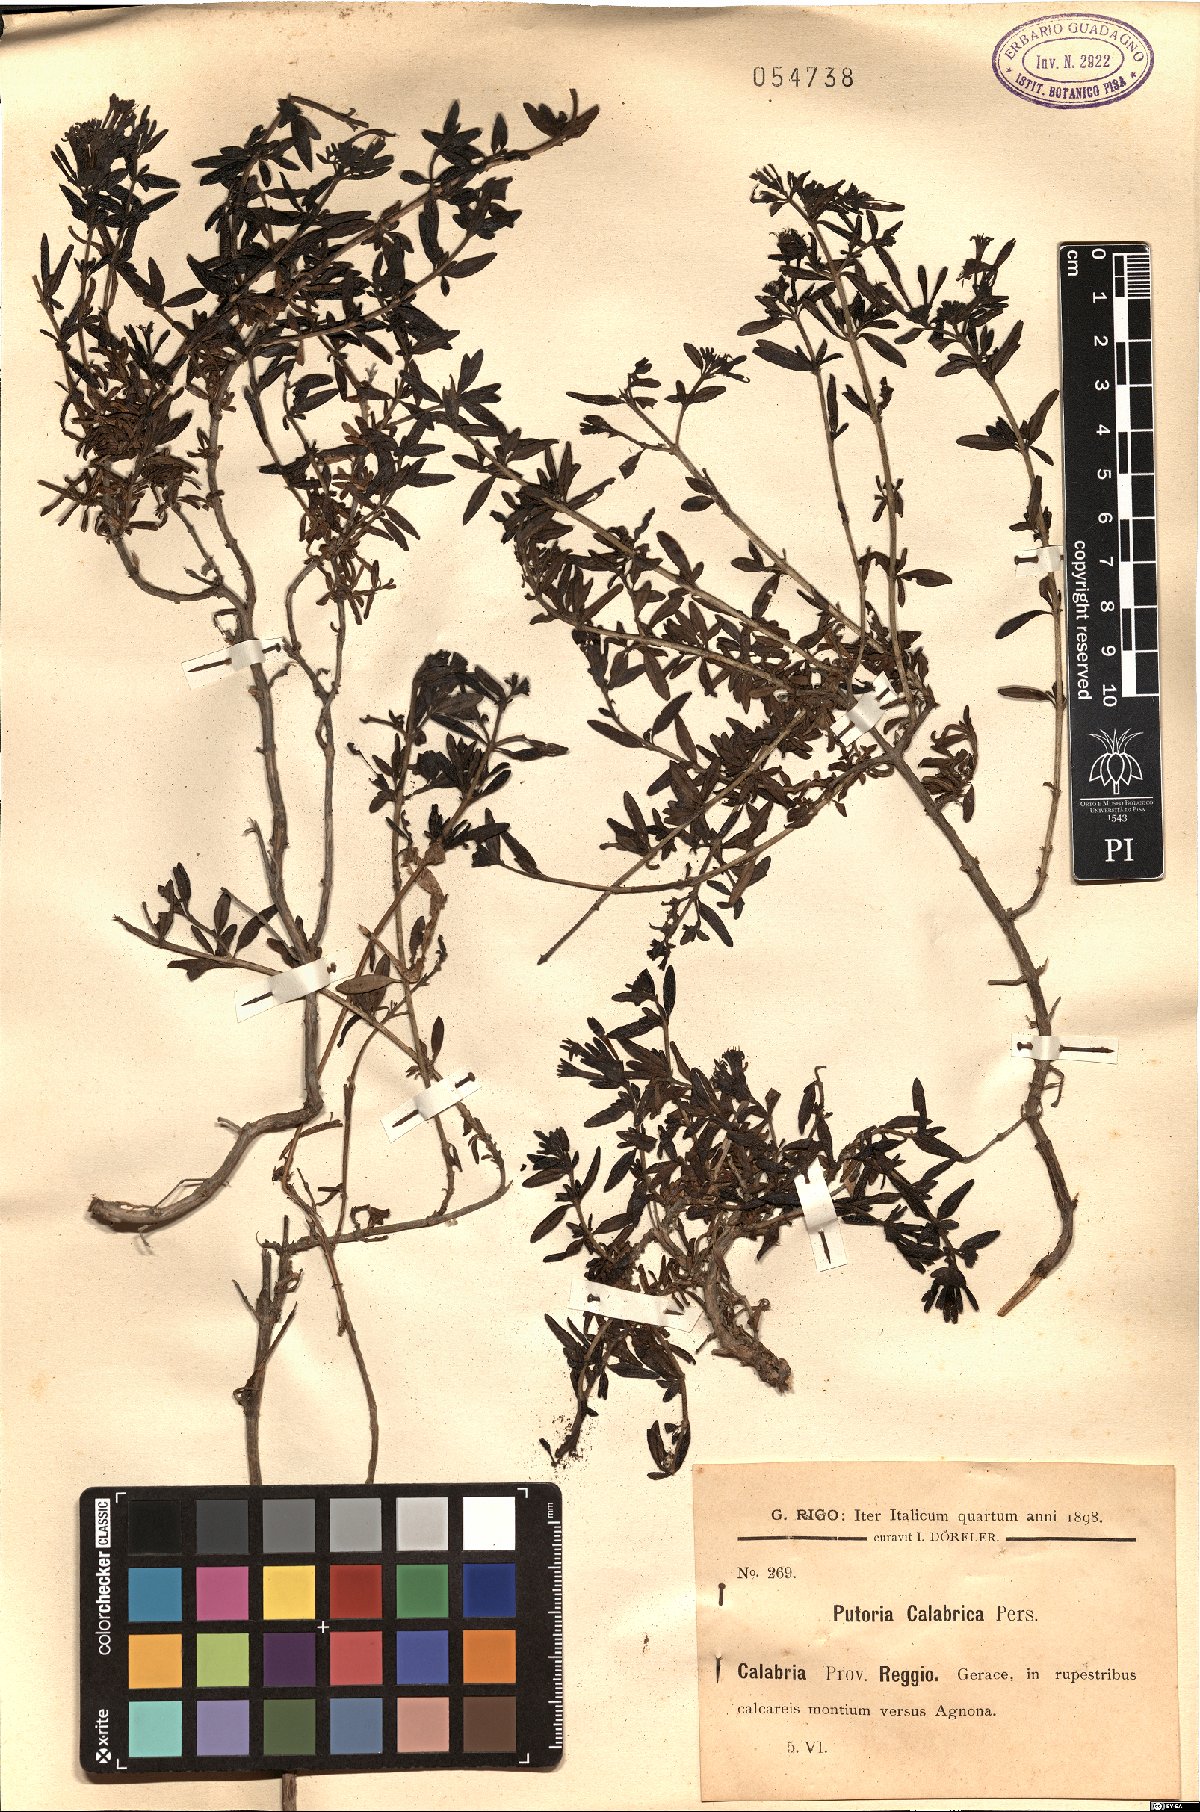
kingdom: Plantae
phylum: Tracheophyta
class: Magnoliopsida
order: Gentianales
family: Rubiaceae
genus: Plocama
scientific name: Plocama calabrica
